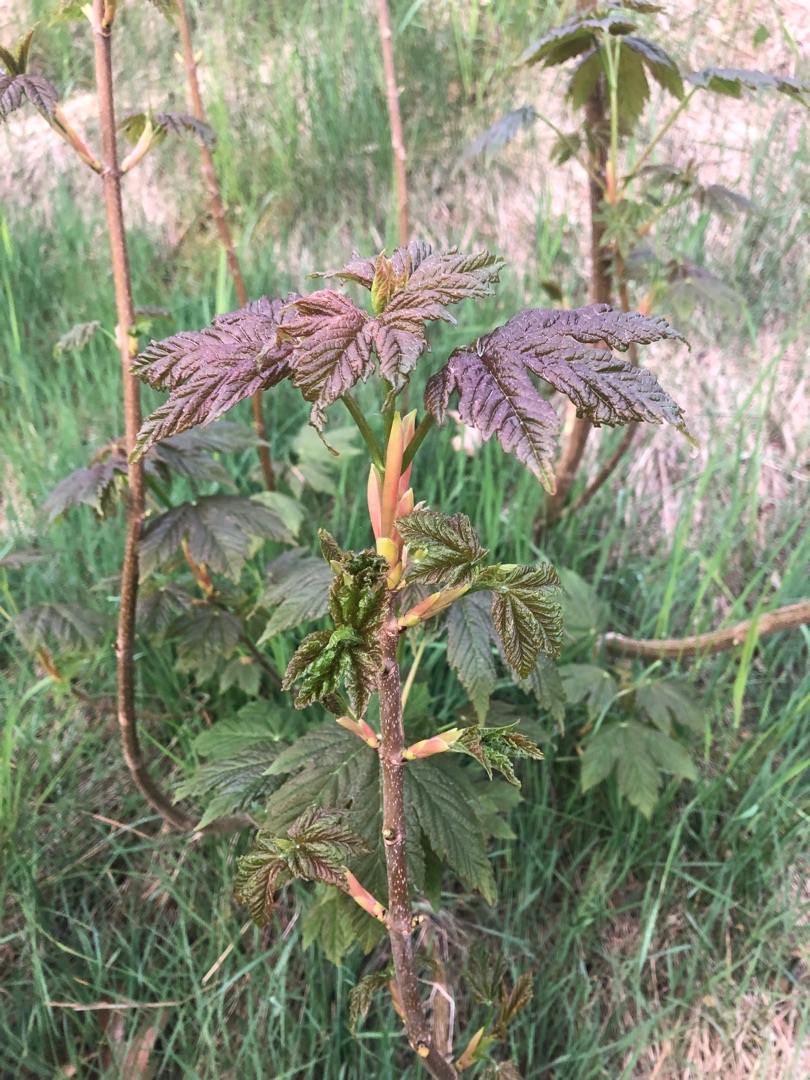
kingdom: Plantae
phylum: Tracheophyta
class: Magnoliopsida
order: Sapindales
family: Sapindaceae
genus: Acer
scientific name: Acer pseudoplatanus
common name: Ahorn
